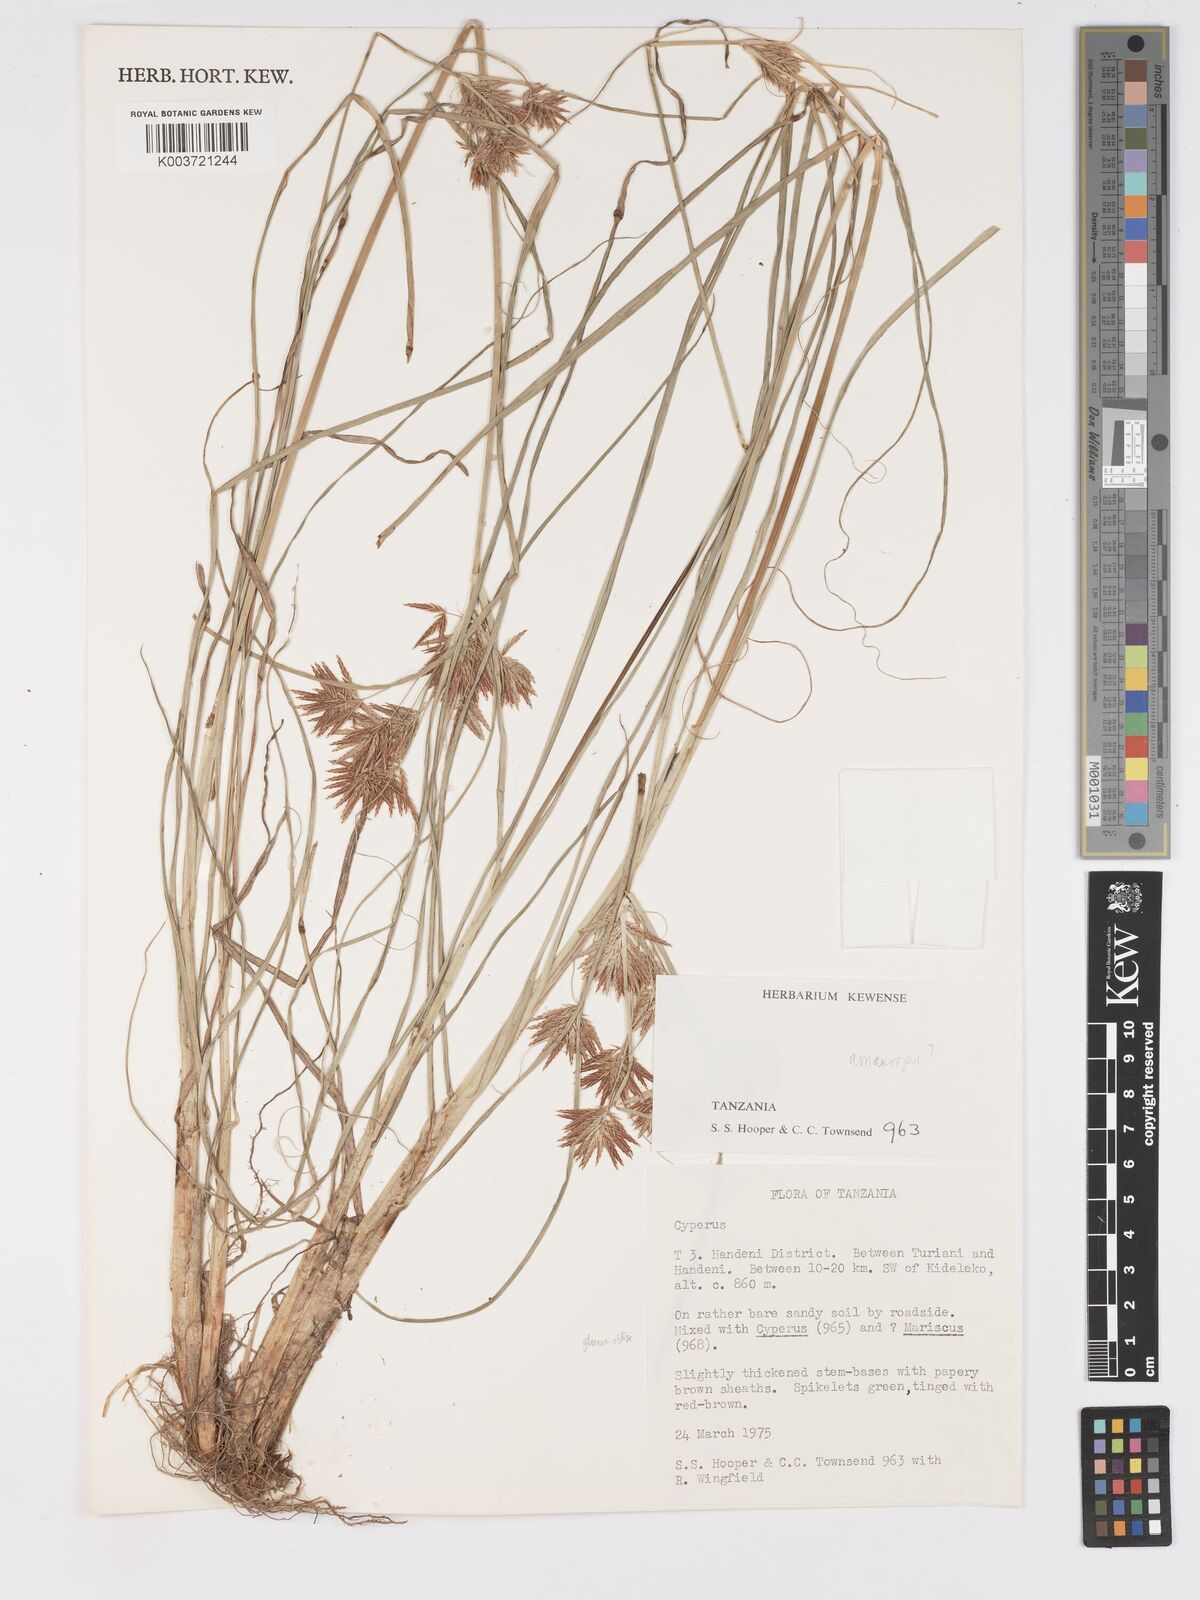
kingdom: Plantae
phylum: Tracheophyta
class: Liliopsida
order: Poales
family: Cyperaceae
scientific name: Cyperaceae
